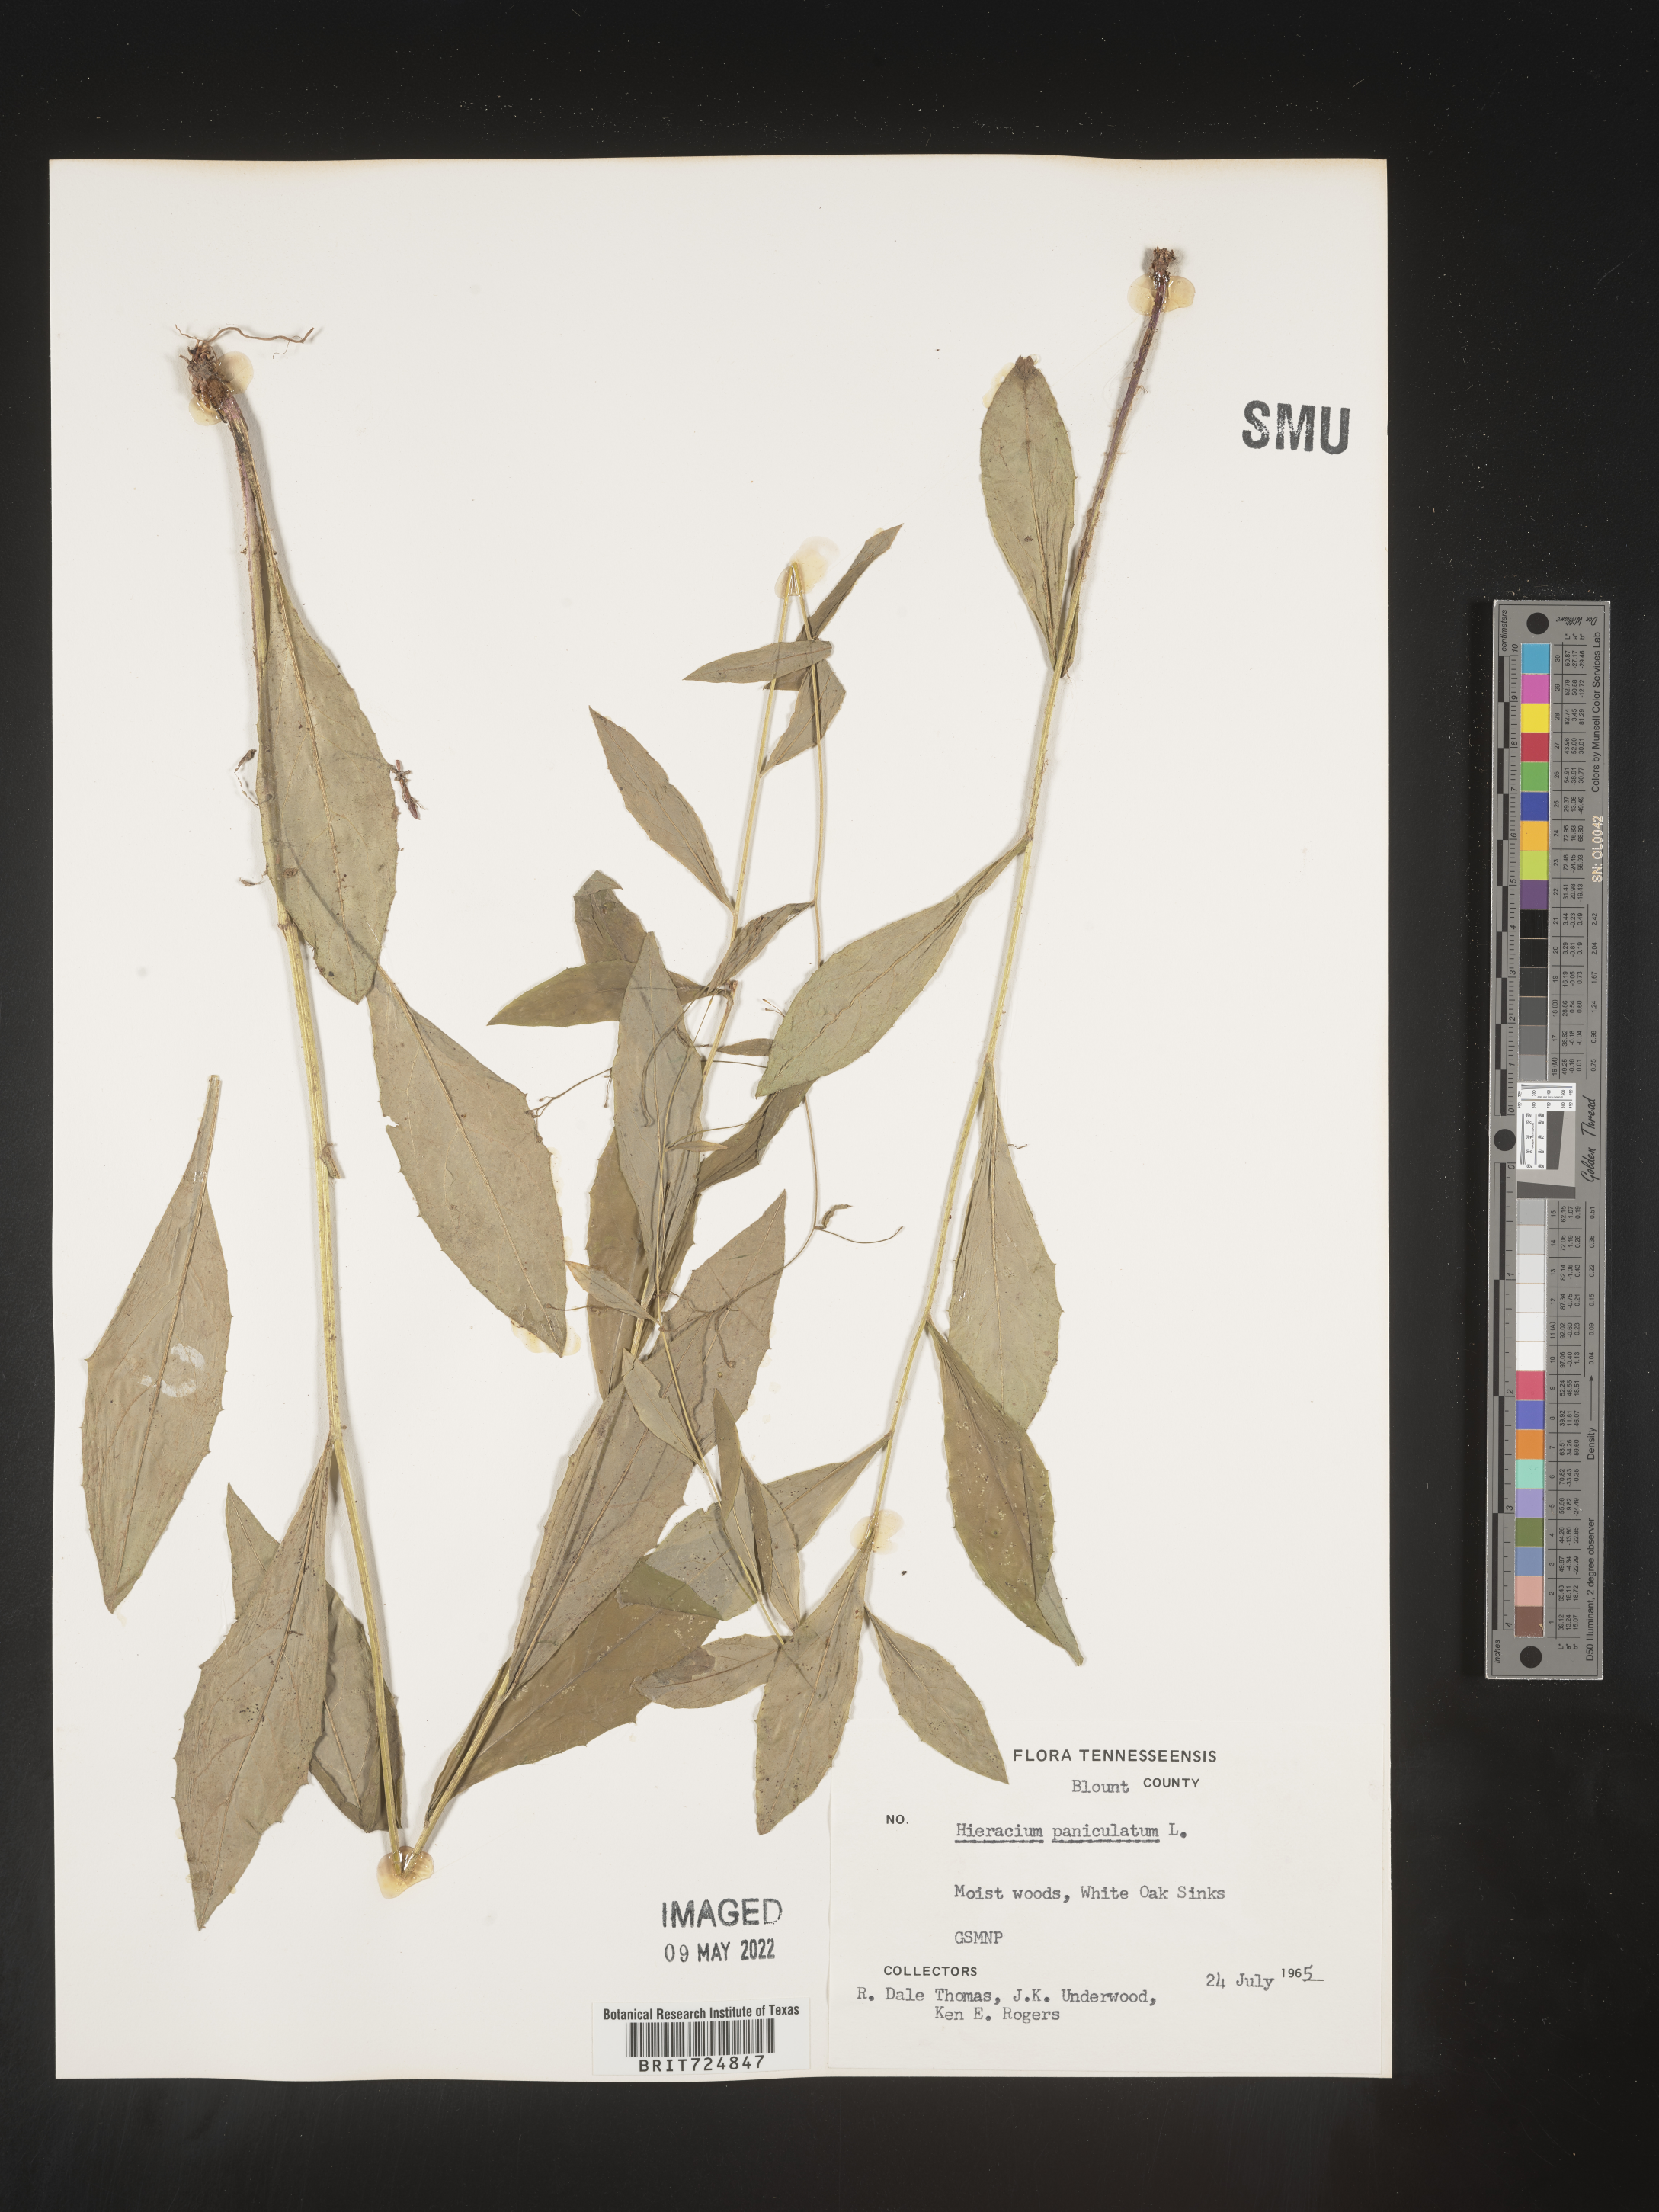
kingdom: Plantae
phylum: Tracheophyta
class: Magnoliopsida
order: Asterales
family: Asteraceae
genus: Hieracium
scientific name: Hieracium paniculatum
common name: Allegheny hawkweed
